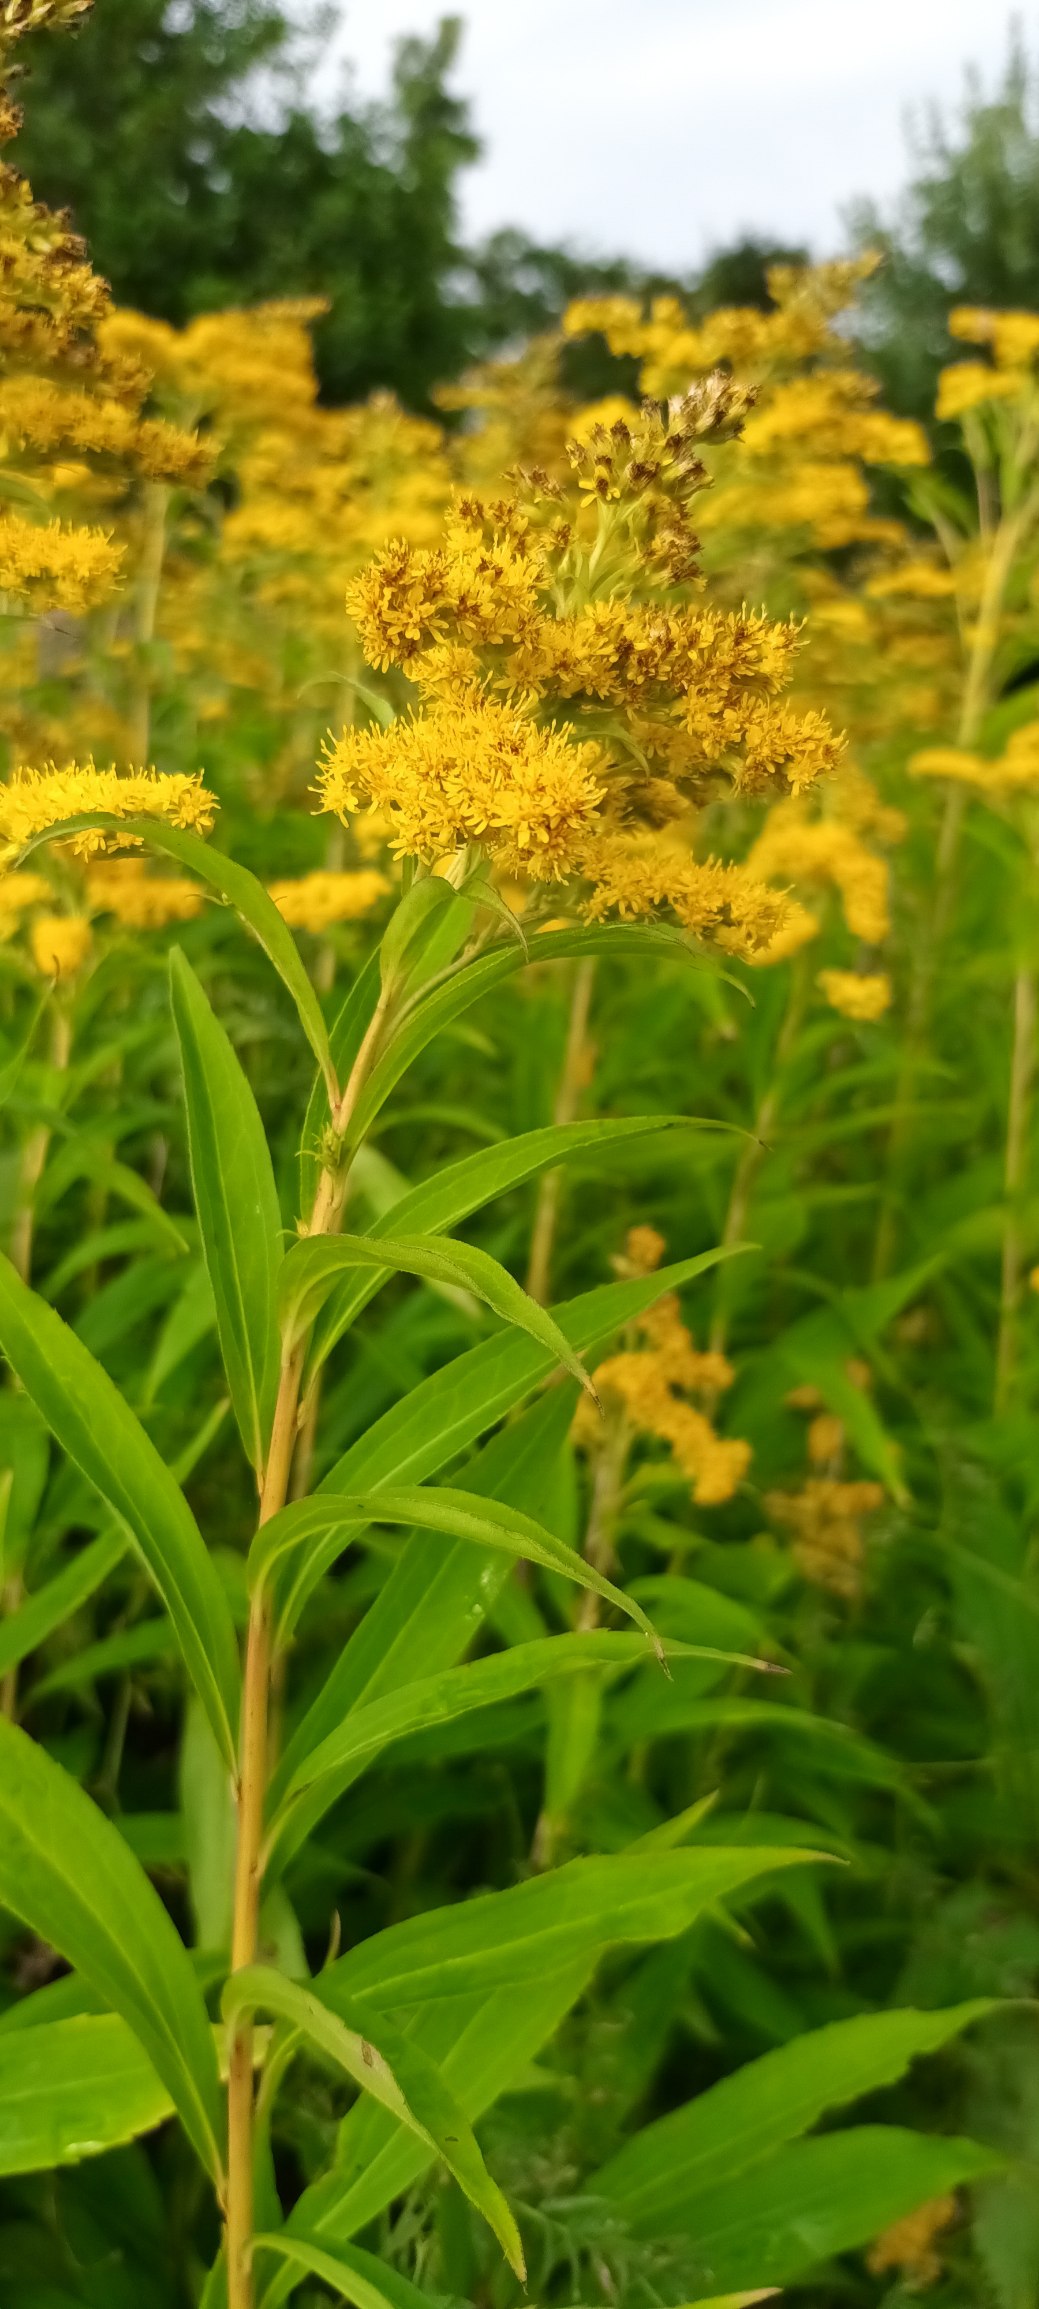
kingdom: Plantae
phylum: Tracheophyta
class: Magnoliopsida
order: Asterales
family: Asteraceae
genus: Solidago
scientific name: Solidago gigantea
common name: Sildig gyldenris
